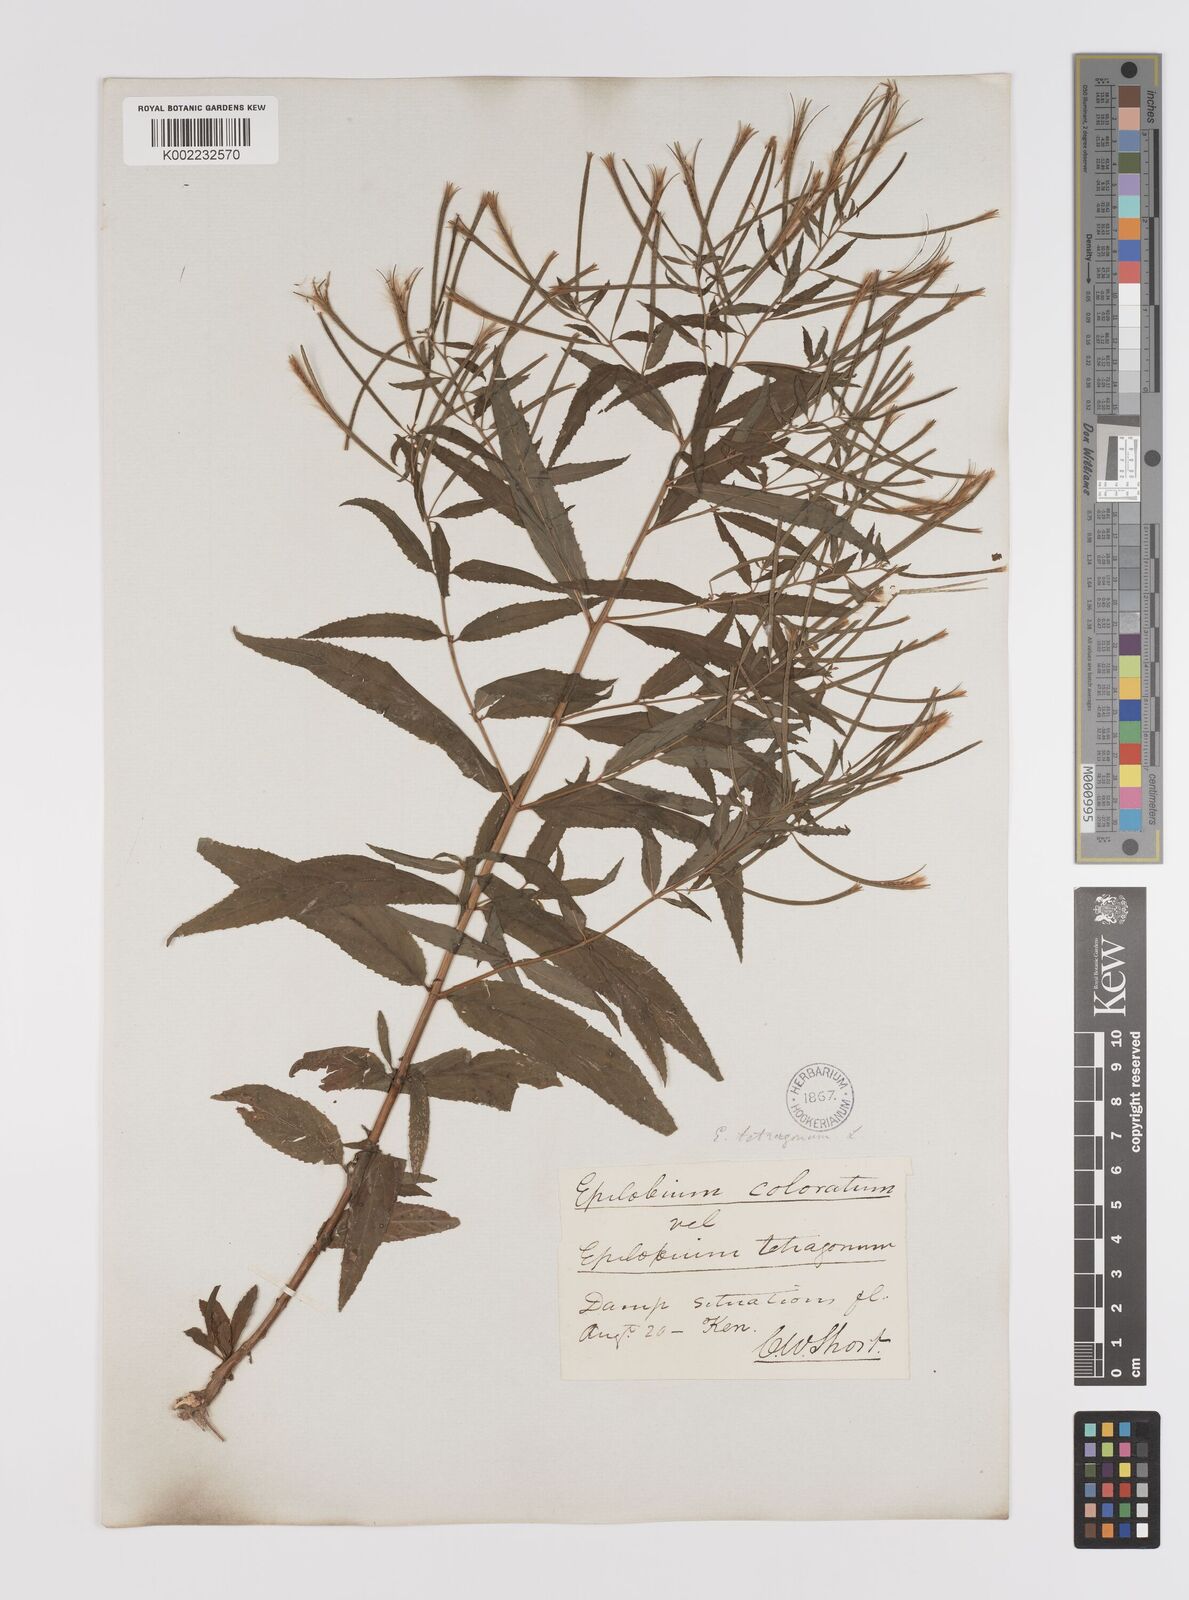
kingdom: Plantae
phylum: Tracheophyta
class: Magnoliopsida
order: Myrtales
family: Onagraceae
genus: Epilobium
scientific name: Epilobium coloratum
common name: Bronze willowherb
